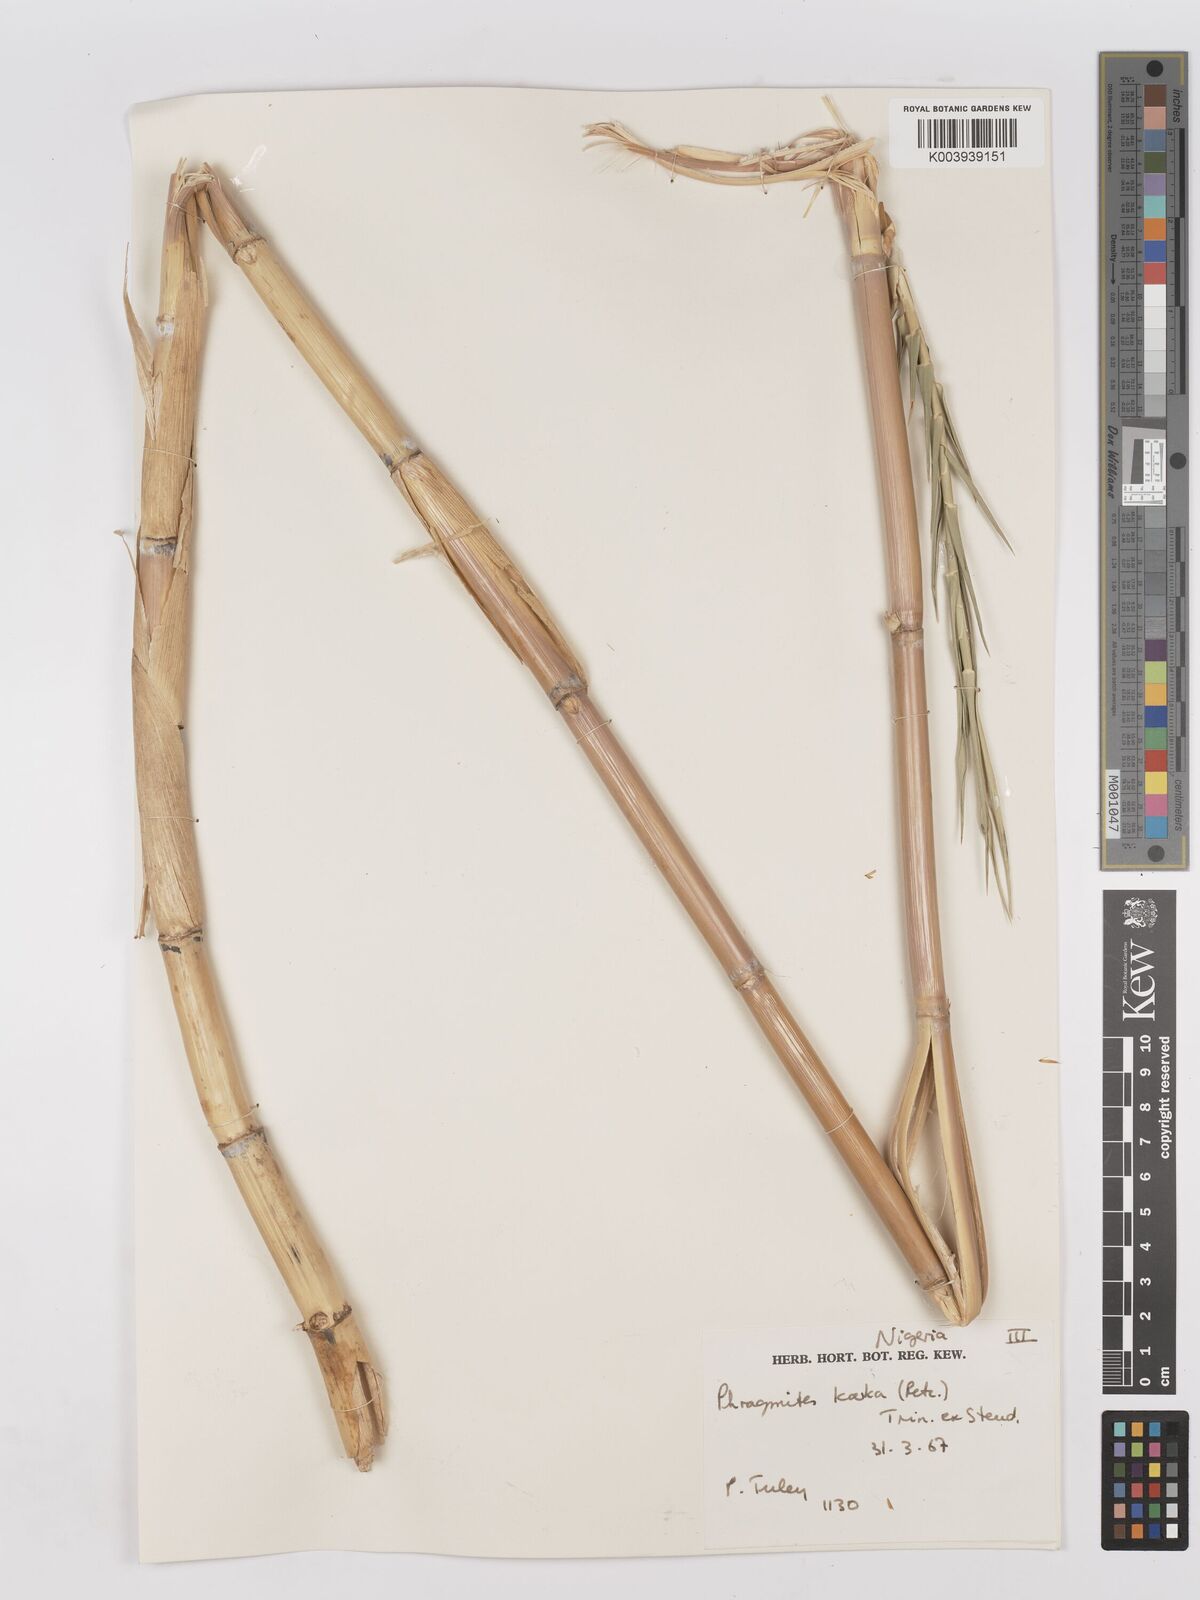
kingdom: Plantae
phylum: Tracheophyta
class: Liliopsida
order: Poales
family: Poaceae
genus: Phragmites
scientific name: Phragmites karka
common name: Tropical reed
